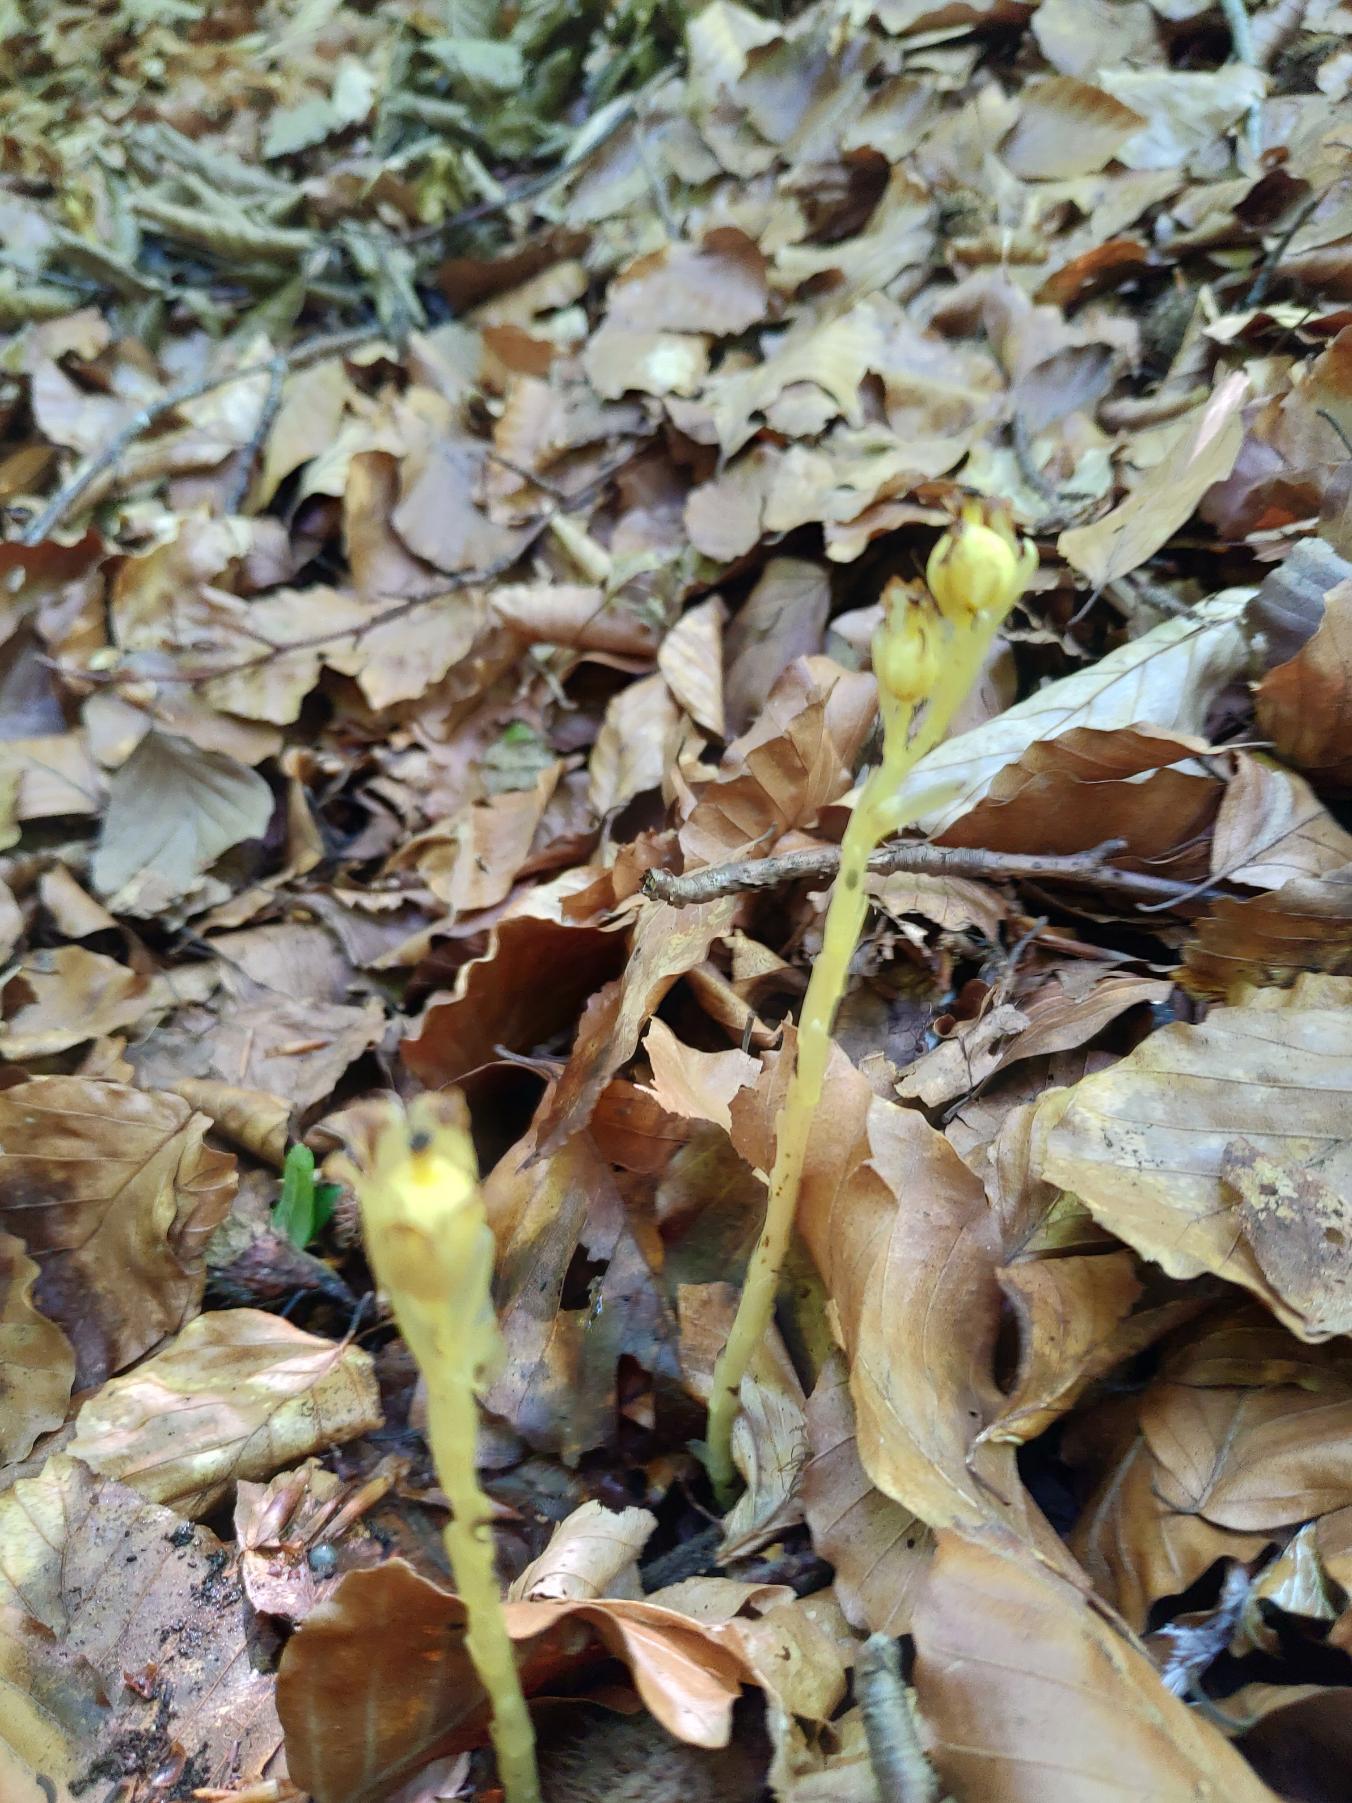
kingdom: Plantae
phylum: Tracheophyta
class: Magnoliopsida
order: Ericales
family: Ericaceae
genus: Hypopitys
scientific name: Hypopitys monotropa
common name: Snylterod
